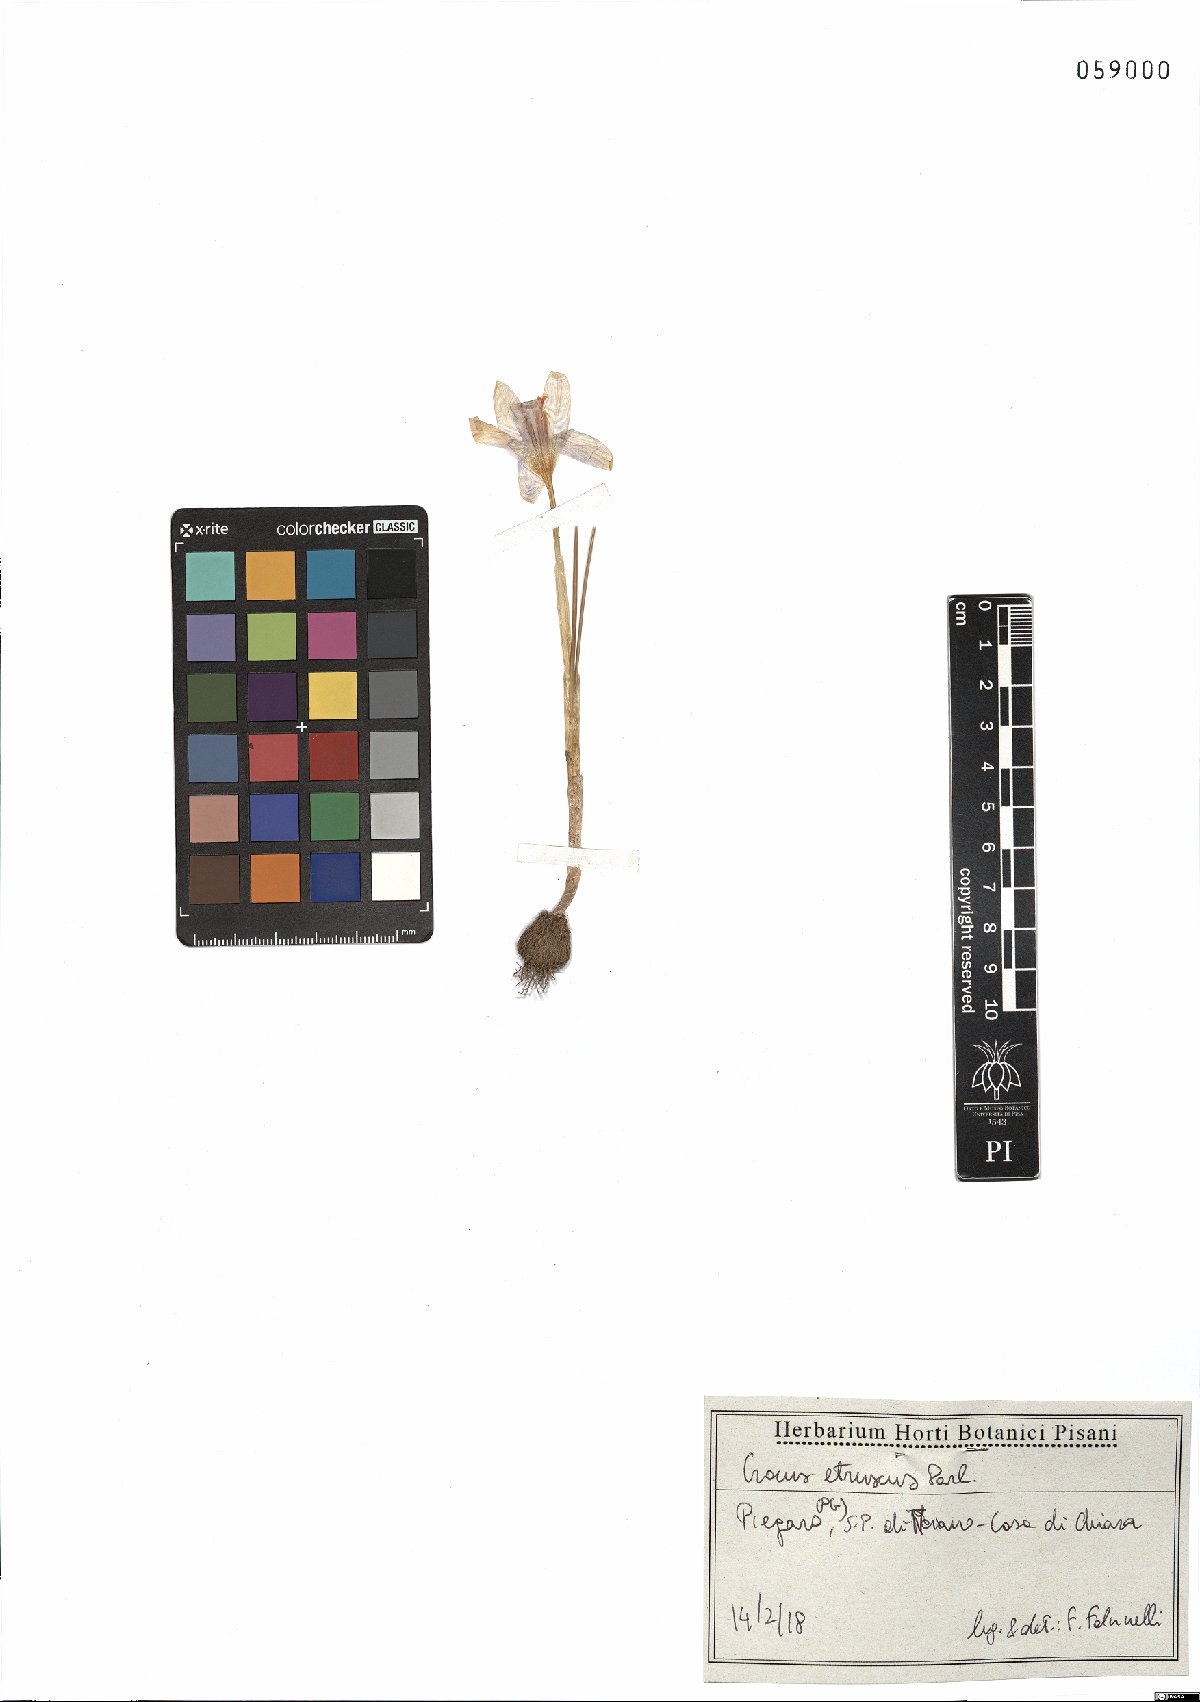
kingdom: Plantae
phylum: Tracheophyta
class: Liliopsida
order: Asparagales
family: Iridaceae
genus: Crocus
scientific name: Crocus etruscus
